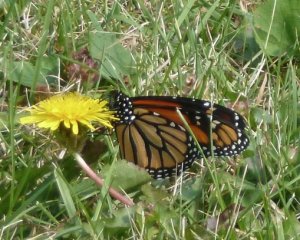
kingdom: Animalia
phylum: Arthropoda
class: Insecta
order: Lepidoptera
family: Nymphalidae
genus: Danaus
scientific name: Danaus plexippus
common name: Monarch
